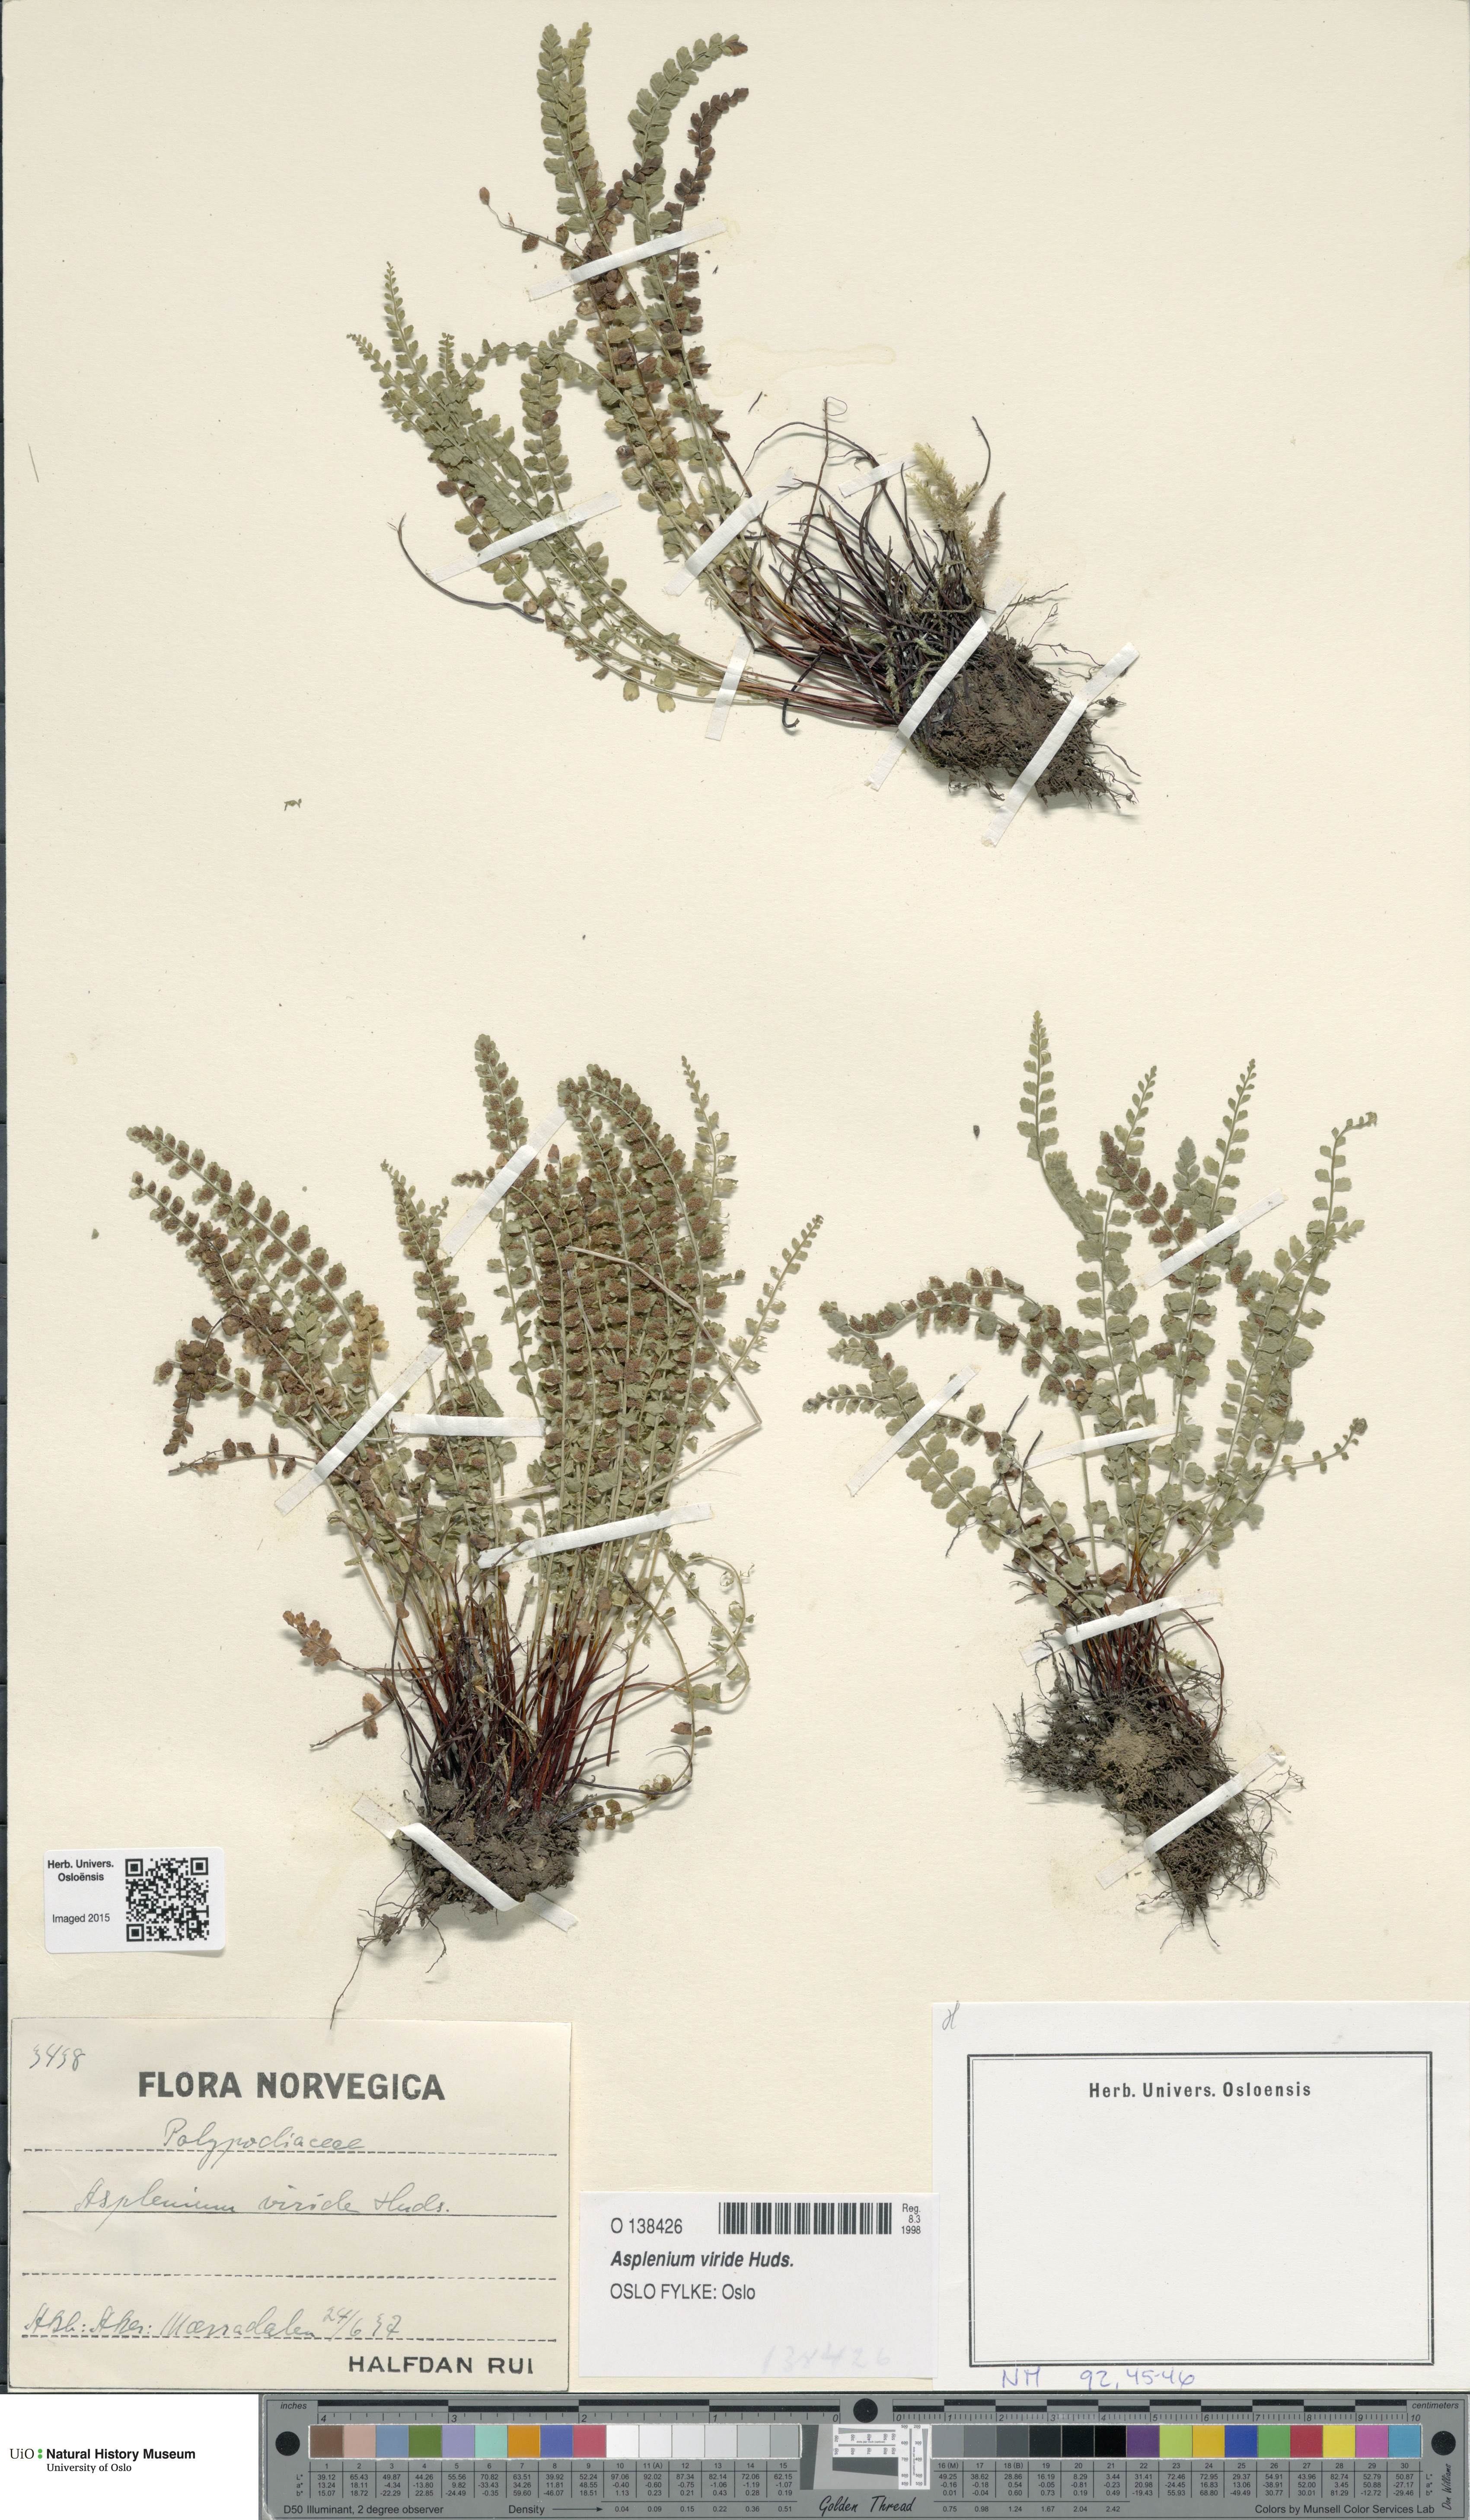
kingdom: Plantae
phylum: Tracheophyta
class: Polypodiopsida
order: Polypodiales
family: Aspleniaceae
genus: Asplenium
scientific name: Asplenium viride
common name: Green spleenwort
